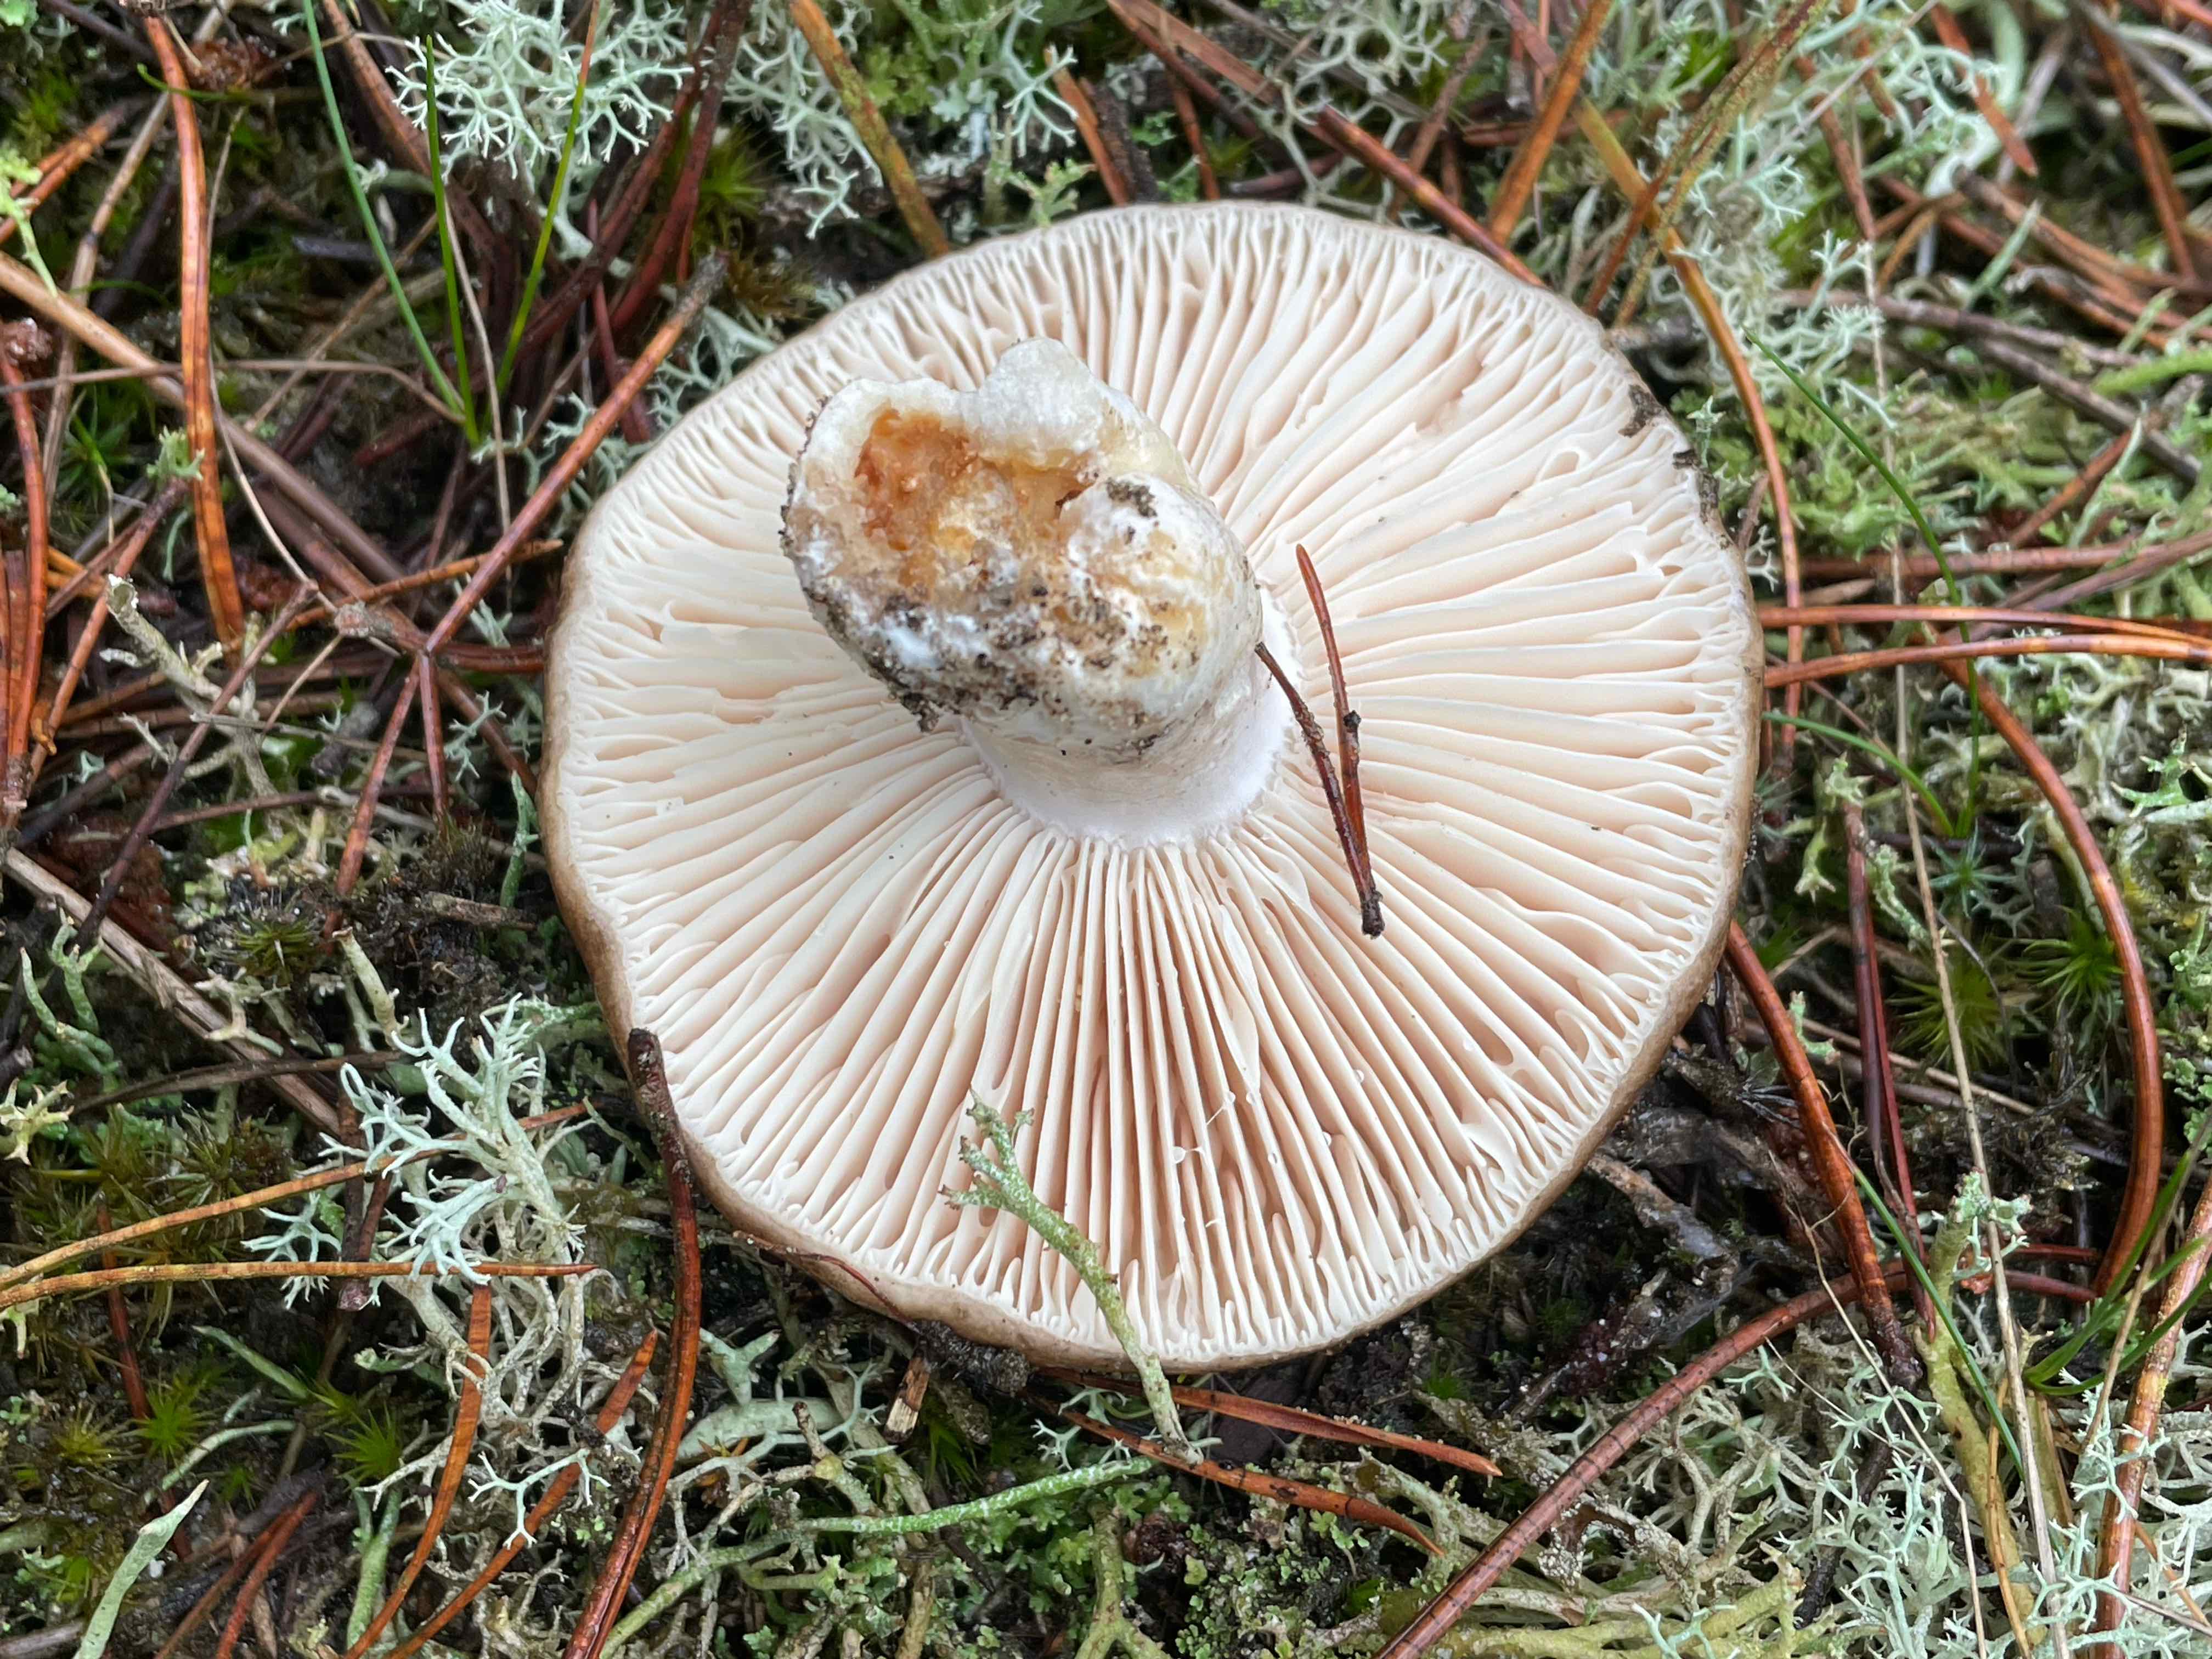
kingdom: Fungi
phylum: Basidiomycota
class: Agaricomycetes
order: Russulales
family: Russulaceae
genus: Russula
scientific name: Russula adusta
